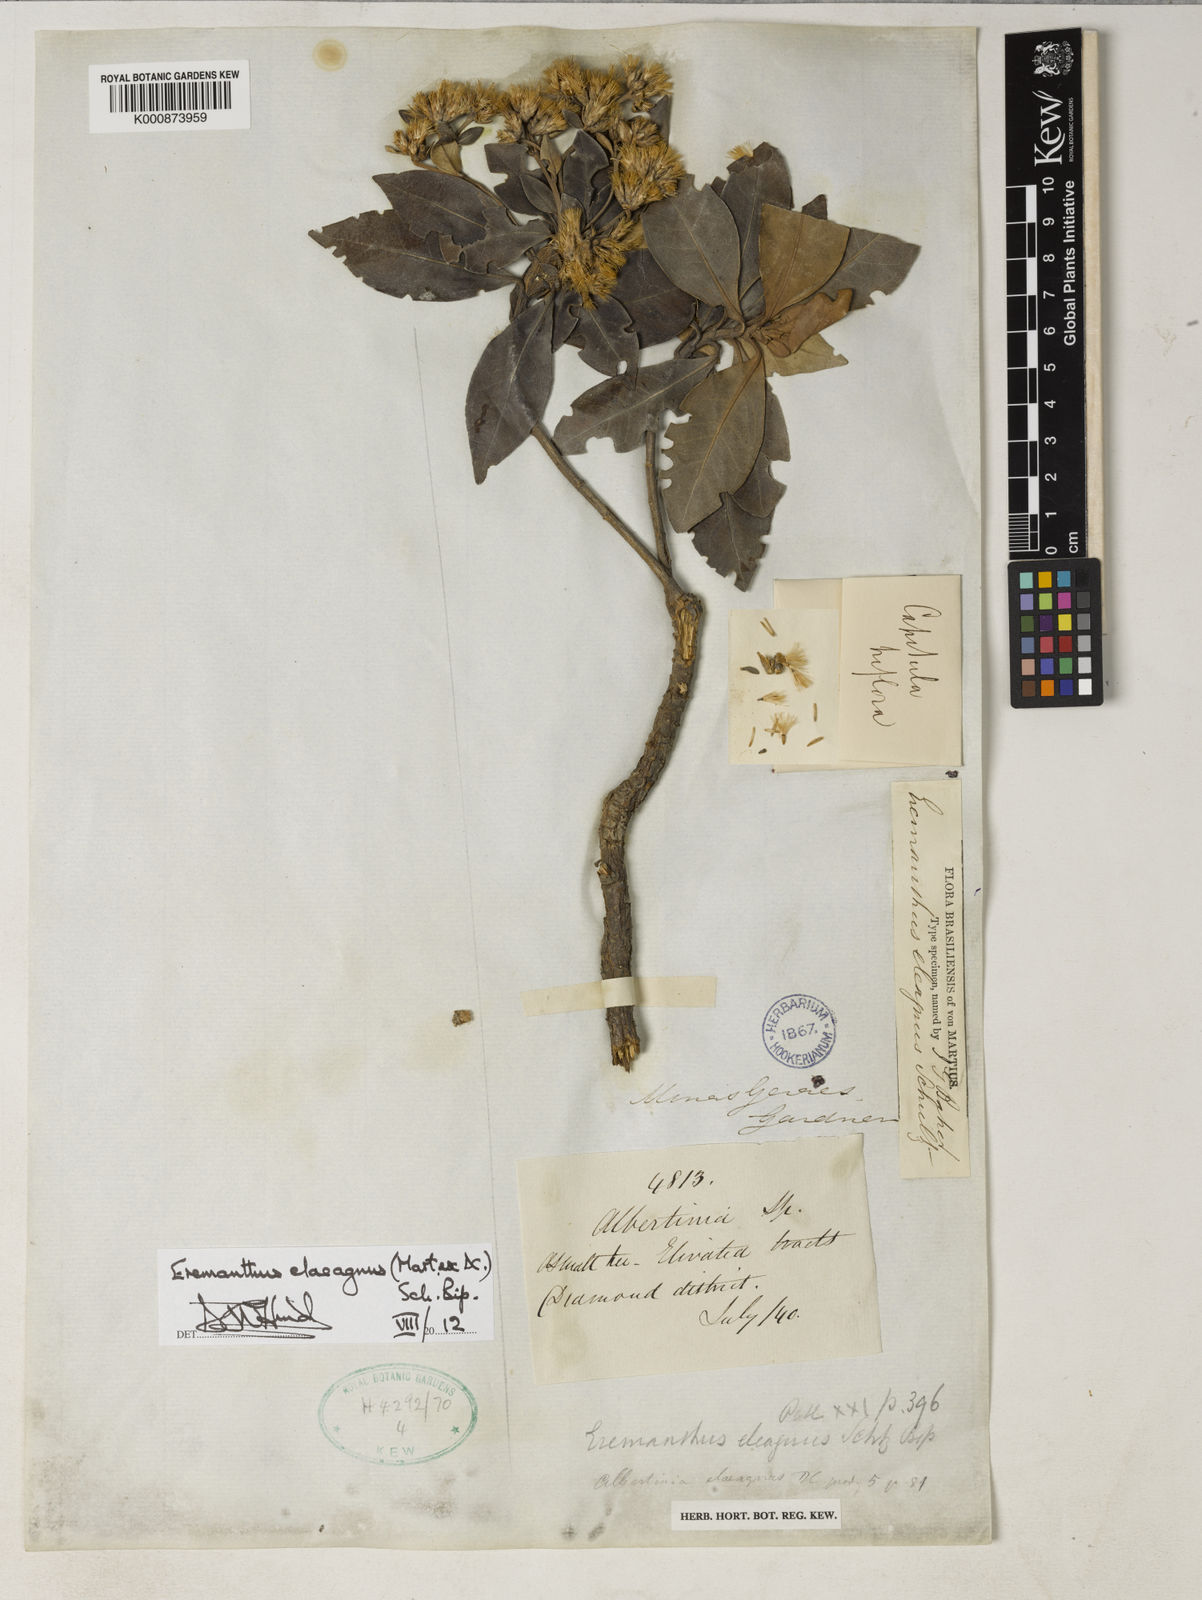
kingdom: Plantae
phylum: Tracheophyta
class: Magnoliopsida
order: Asterales
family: Asteraceae
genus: Eremanthus
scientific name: Eremanthus elaeagnus
